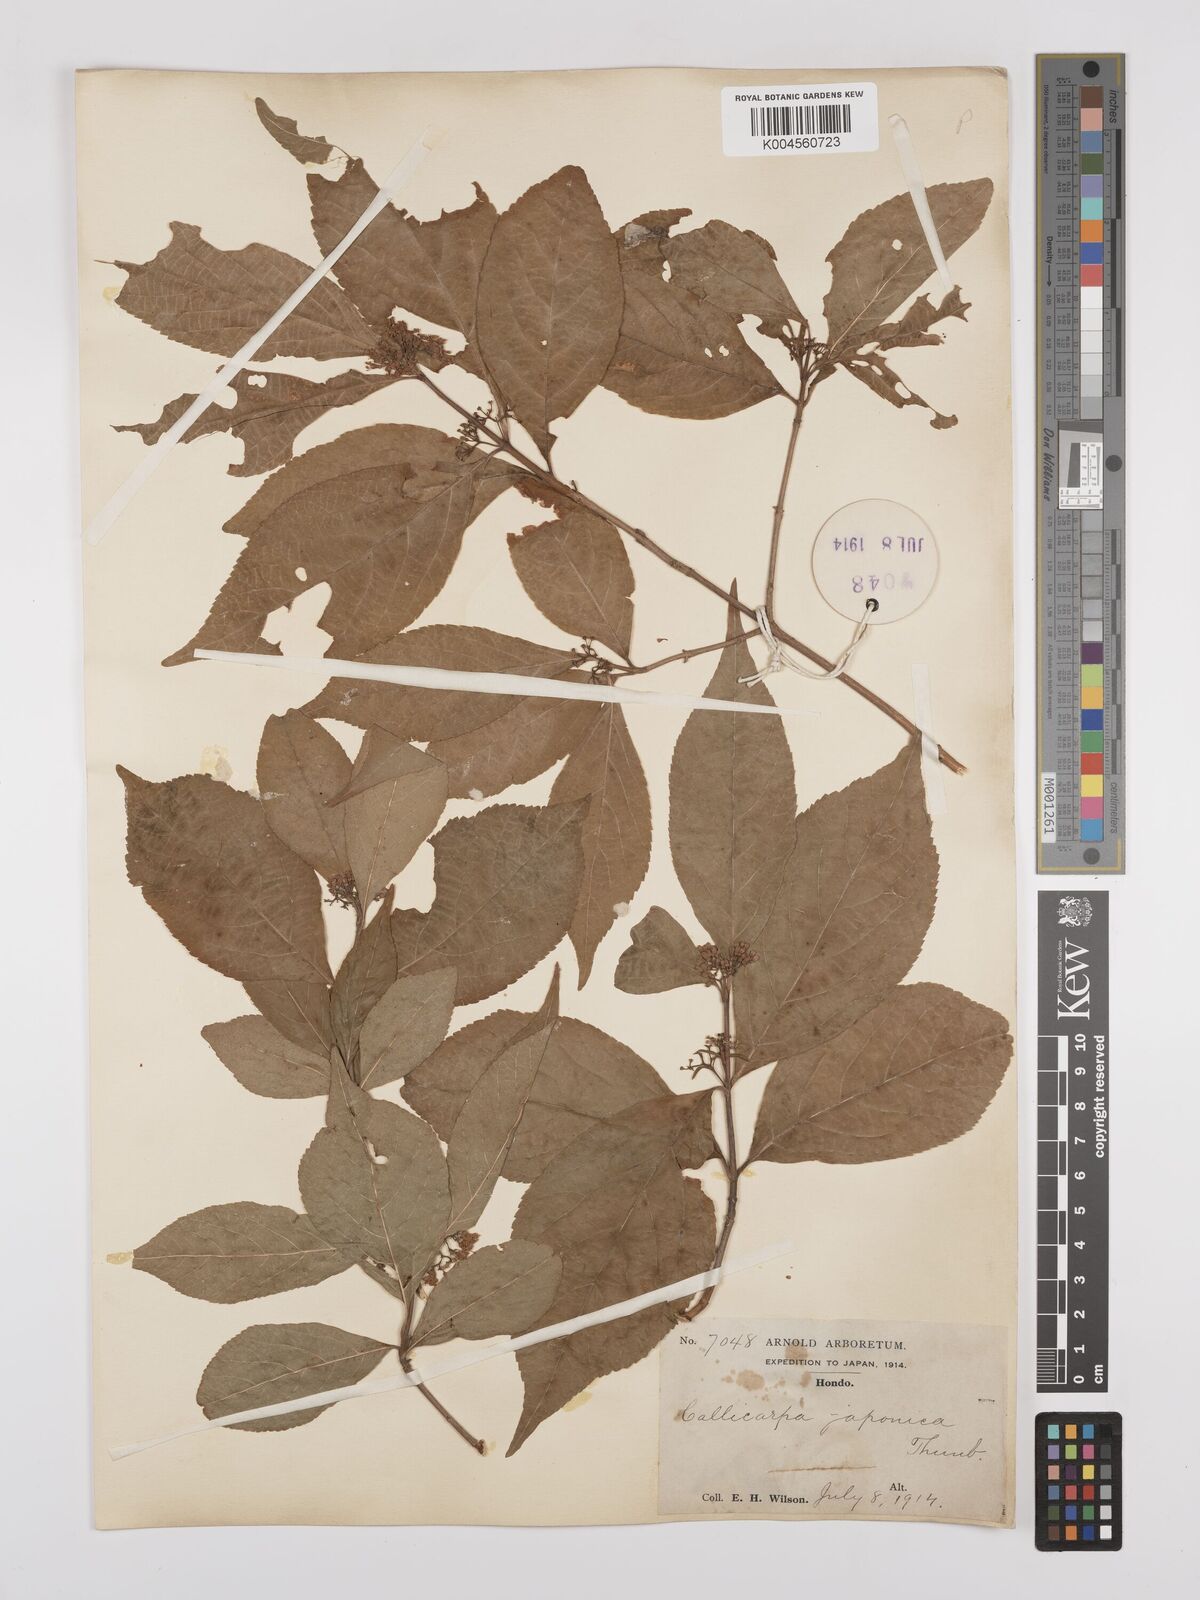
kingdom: Plantae
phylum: Tracheophyta
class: Magnoliopsida
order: Lamiales
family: Lamiaceae
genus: Callicarpa
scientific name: Callicarpa japonica
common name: Japanese beauty-berry
